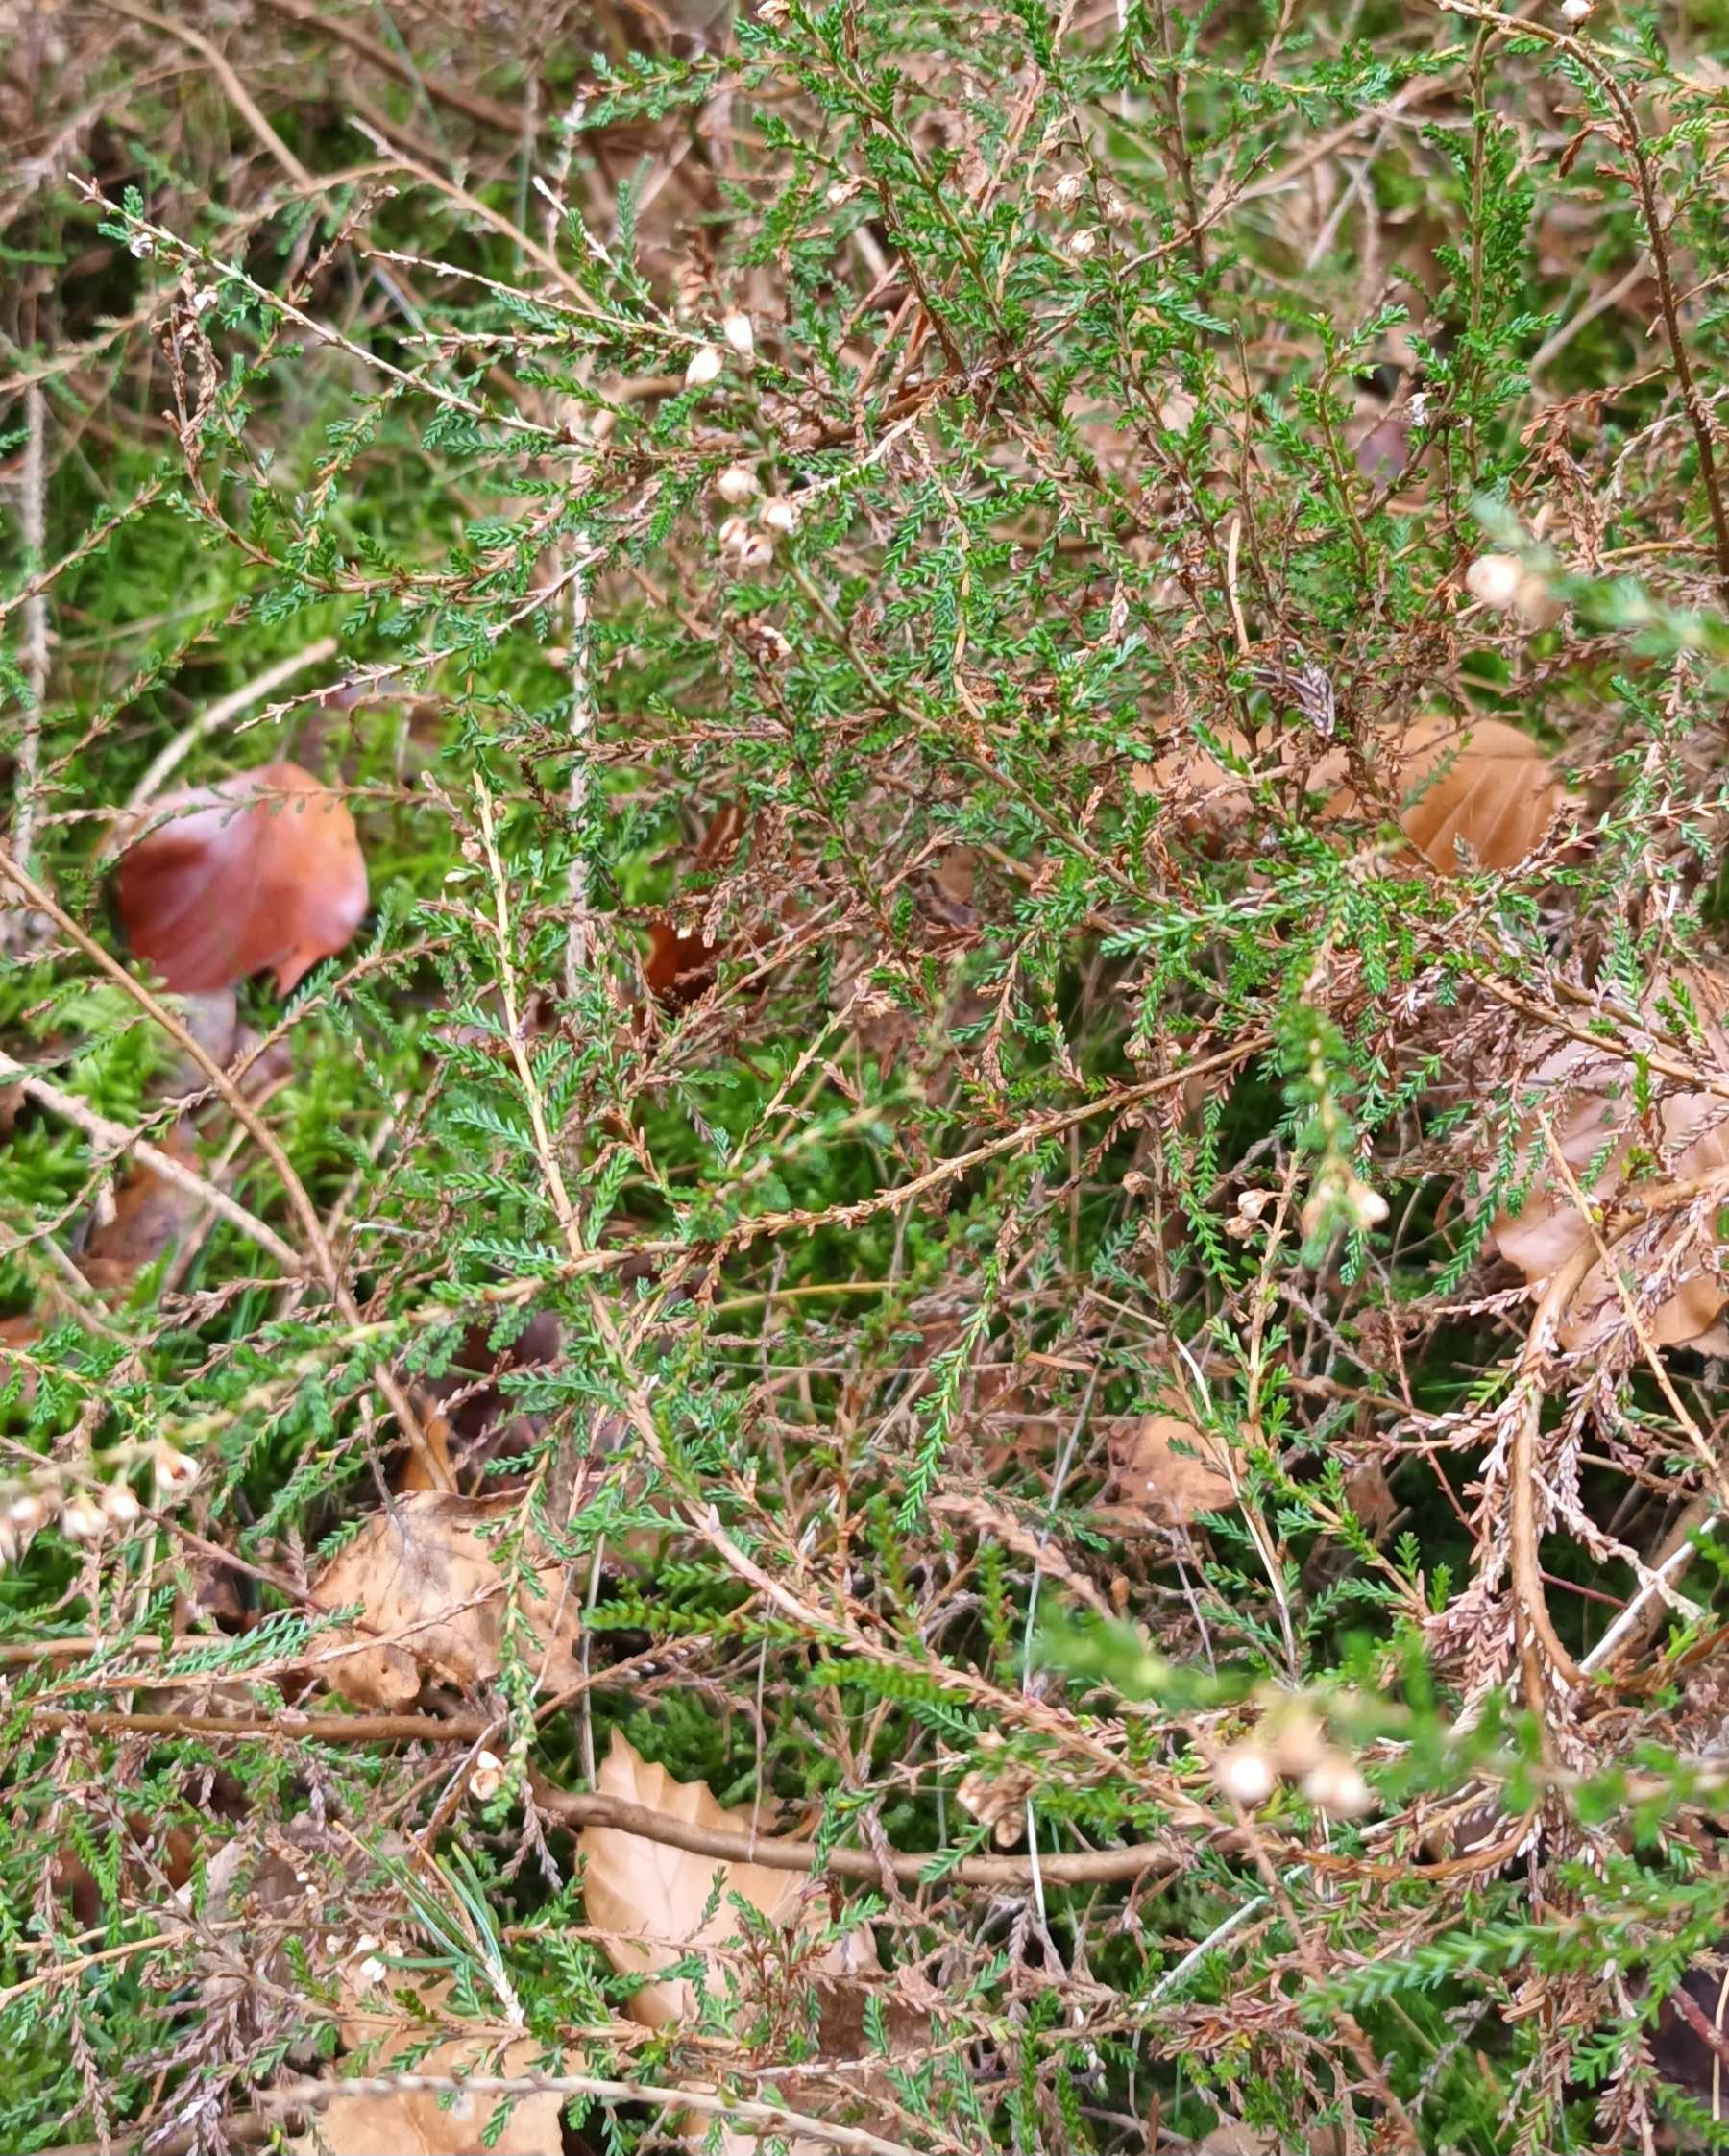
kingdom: Plantae
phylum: Tracheophyta
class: Magnoliopsida
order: Ericales
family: Ericaceae
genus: Calluna
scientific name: Calluna vulgaris
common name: Hedelyng
